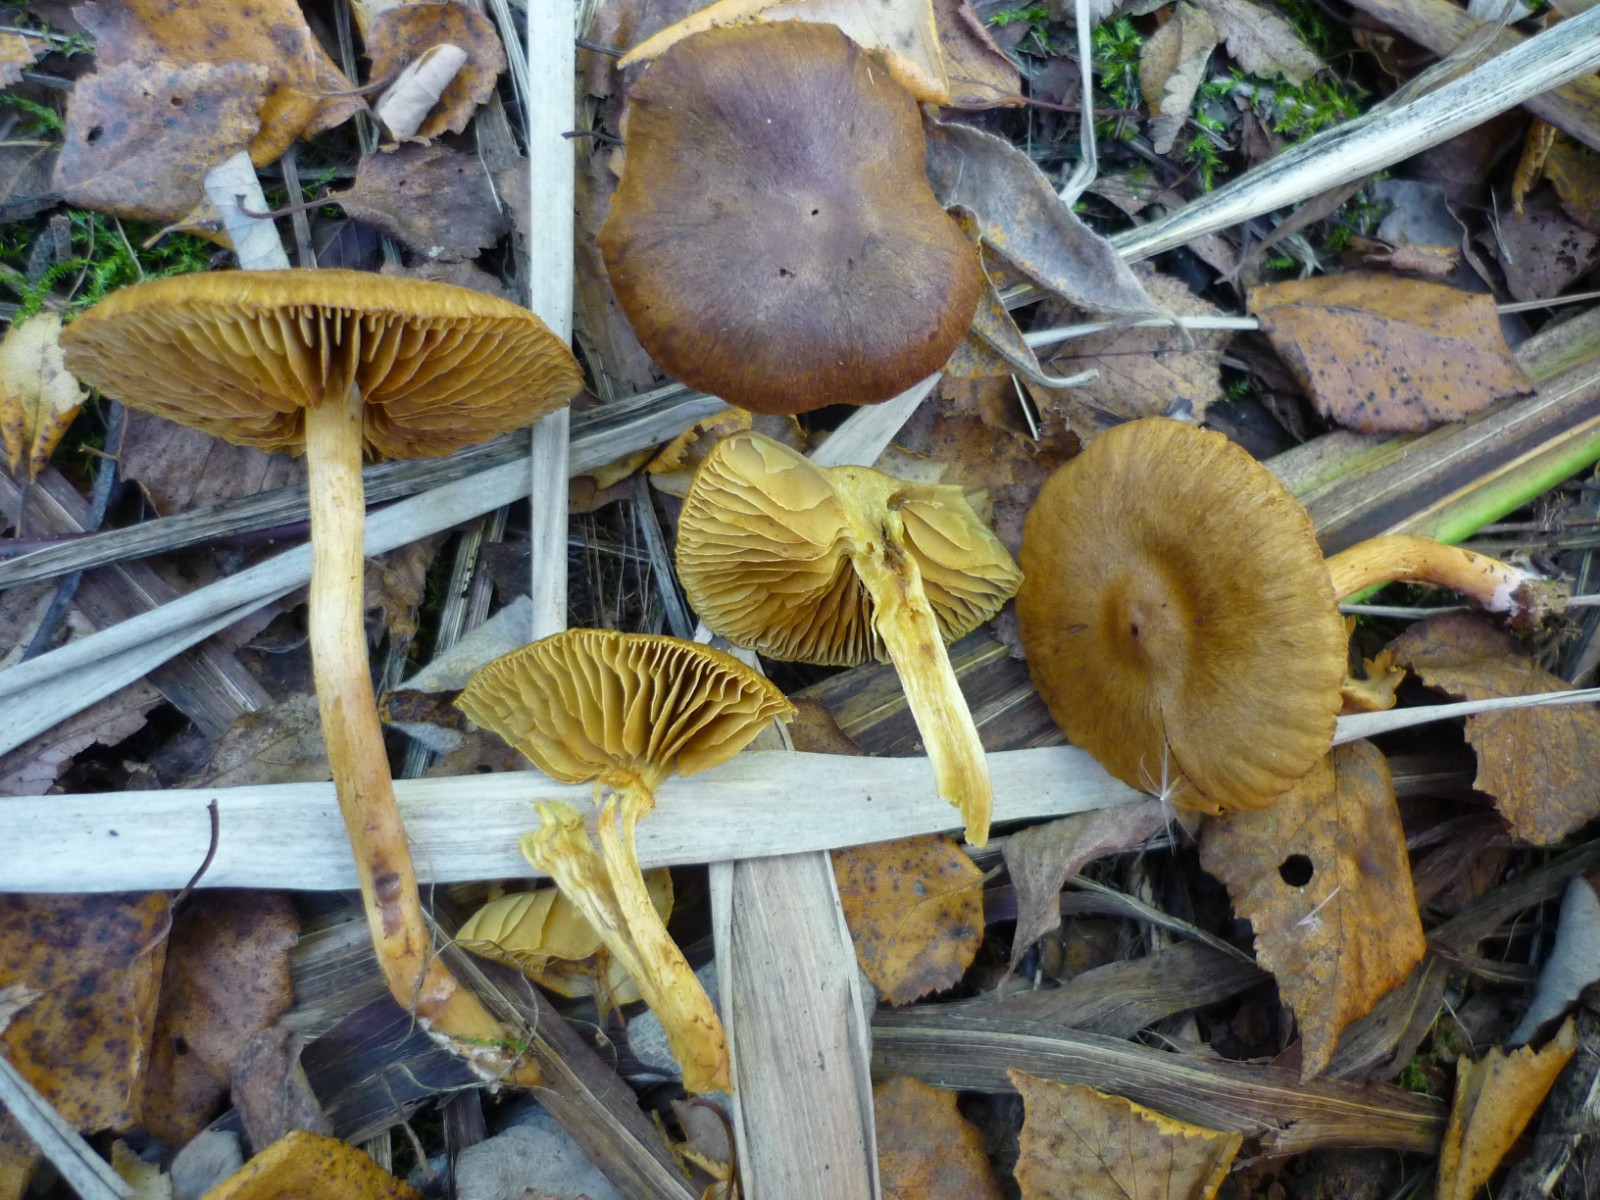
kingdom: Fungi
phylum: Basidiomycota
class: Agaricomycetes
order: Agaricales
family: Cortinariaceae
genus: Cortinarius
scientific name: Cortinarius
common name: gulbladet slørhat
